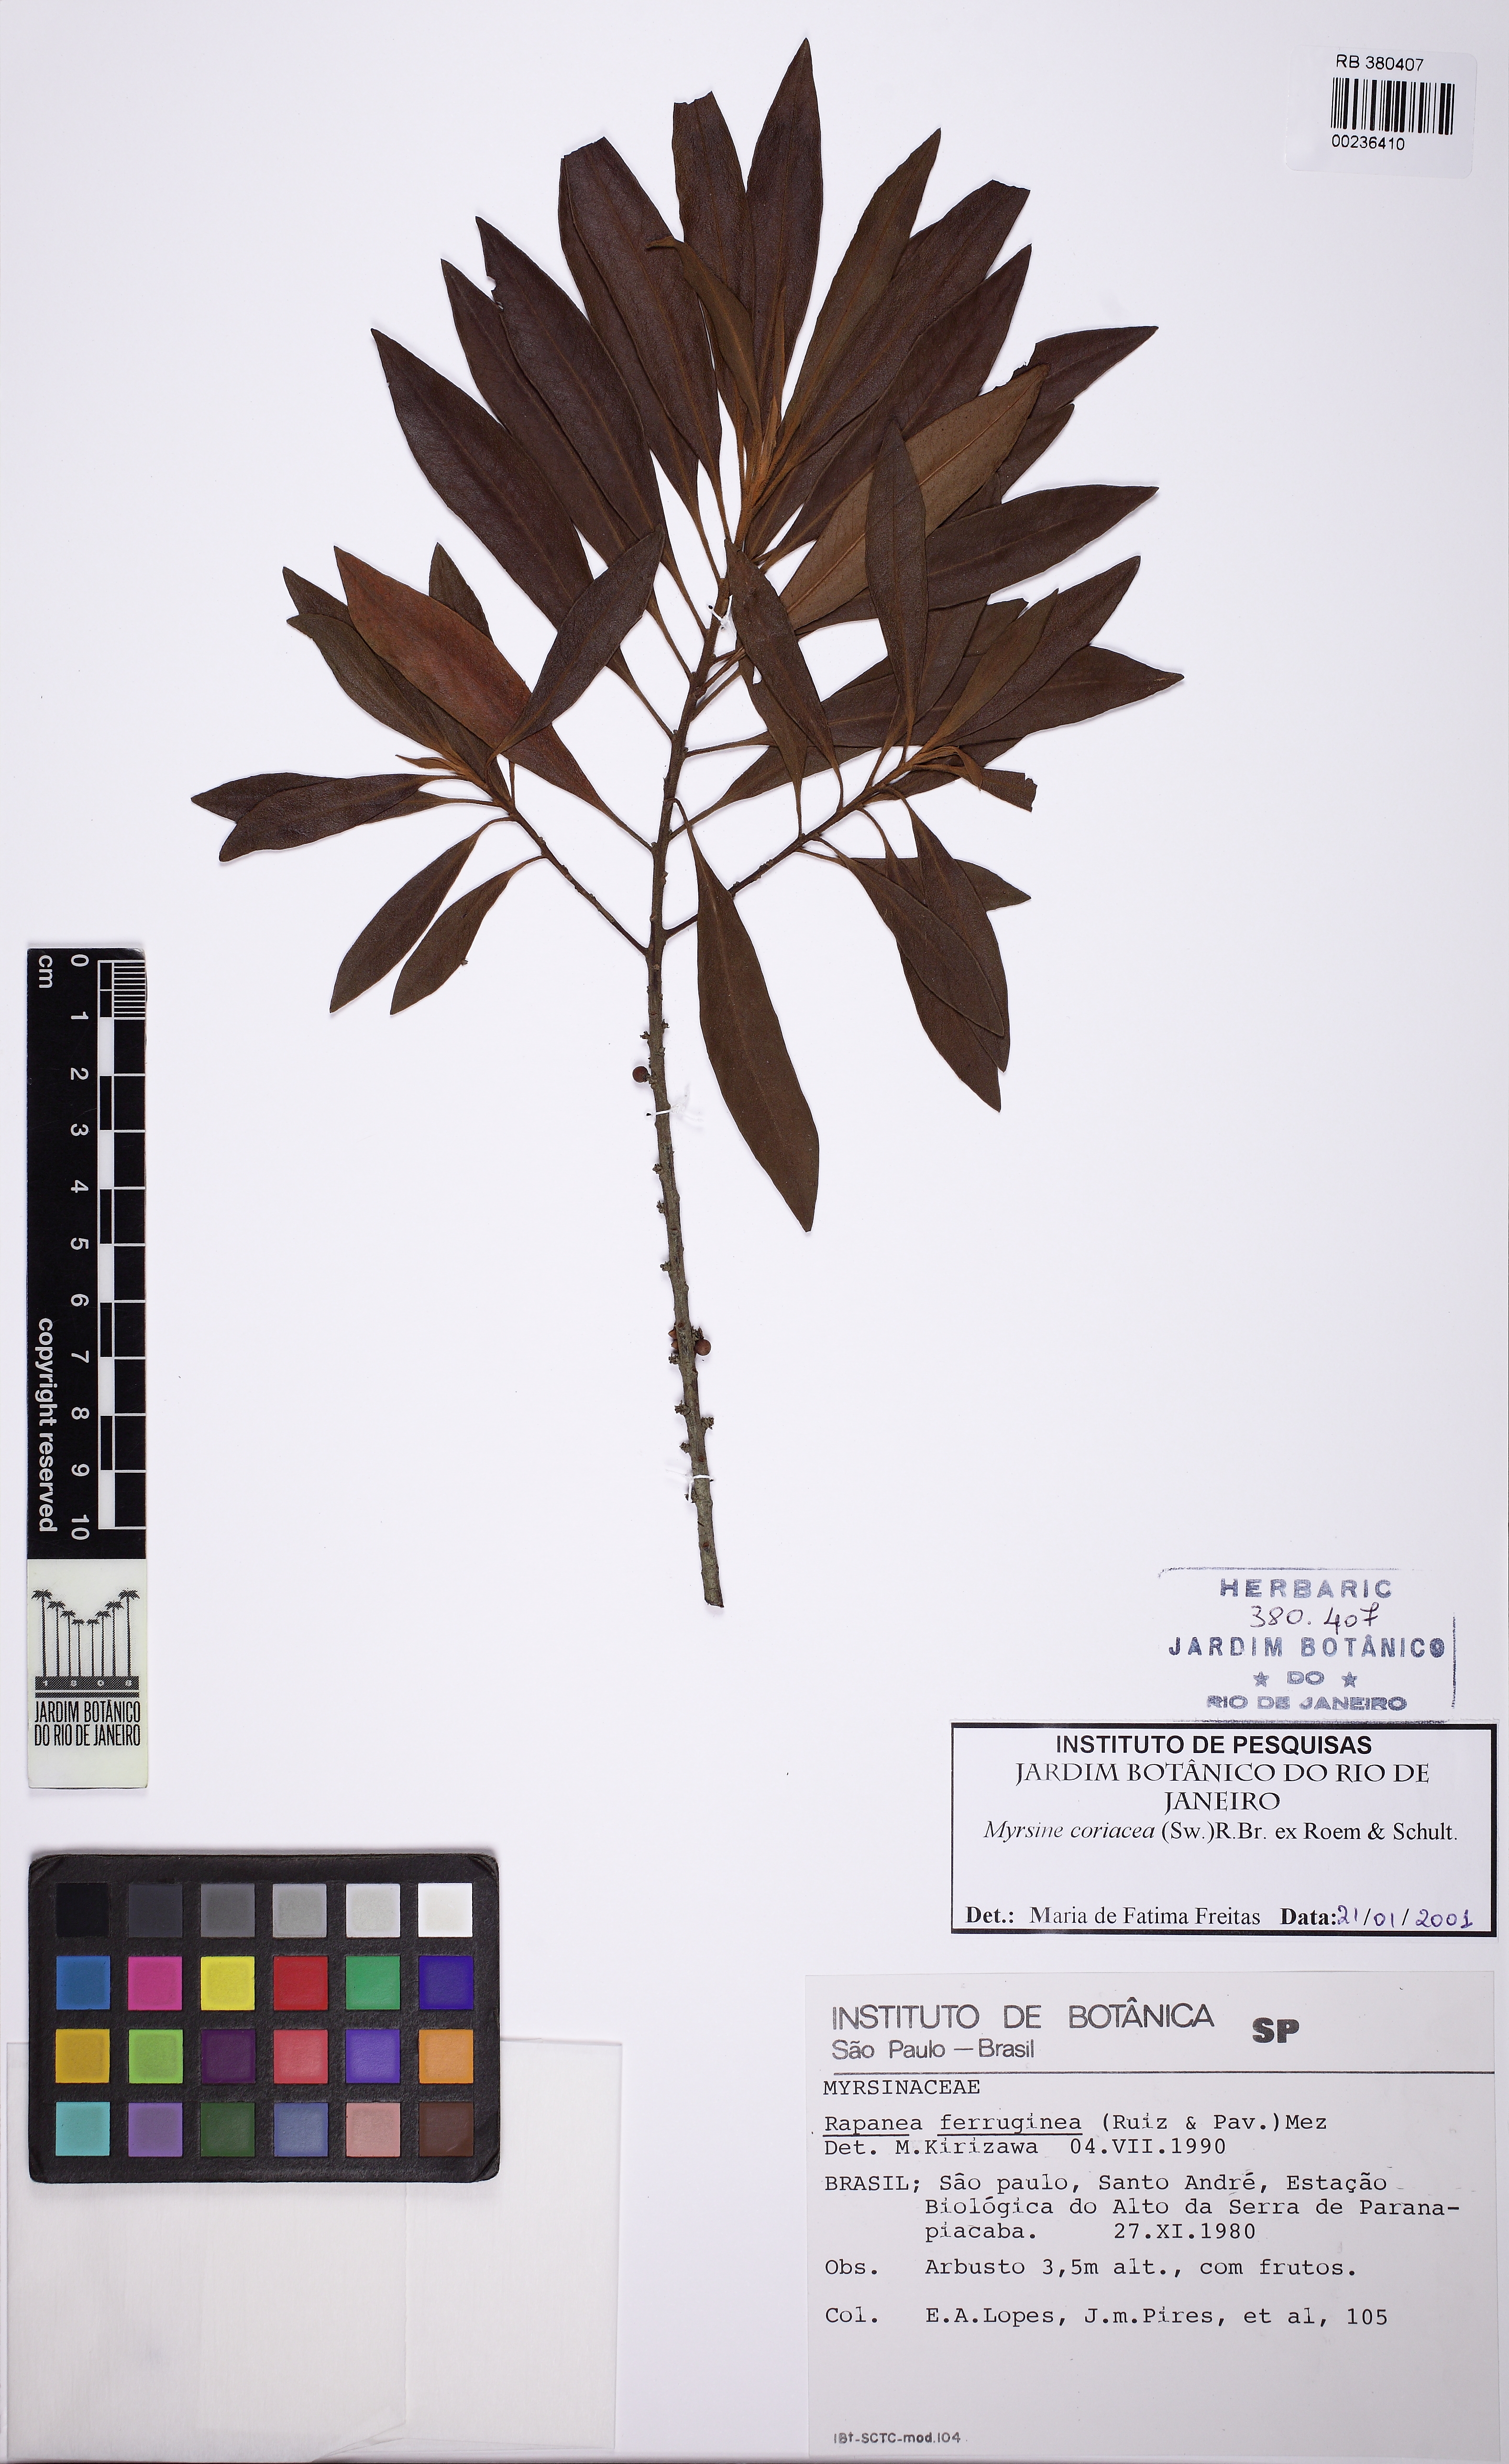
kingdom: Plantae
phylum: Tracheophyta
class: Magnoliopsida
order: Ericales
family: Primulaceae
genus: Myrsine
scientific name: Myrsine coriacea
